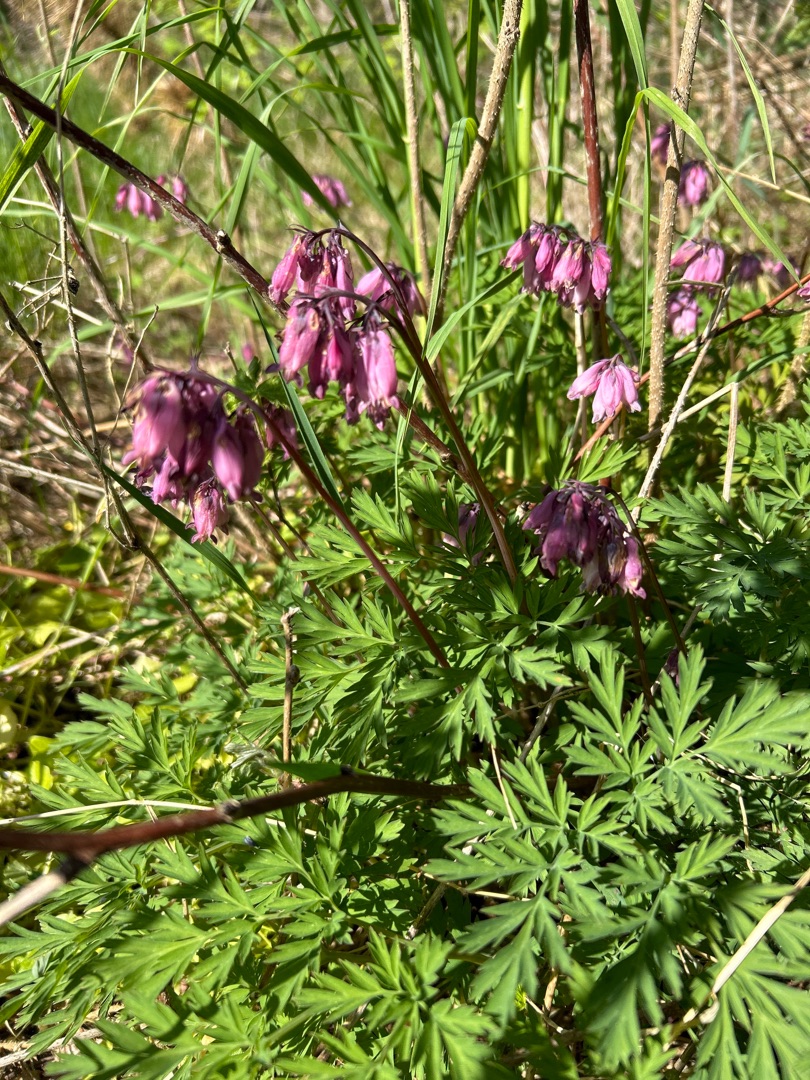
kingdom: Plantae
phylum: Tracheophyta
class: Magnoliopsida
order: Ranunculales
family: Papaveraceae
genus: Dicentra
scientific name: Dicentra formosa
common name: Småhjerte
